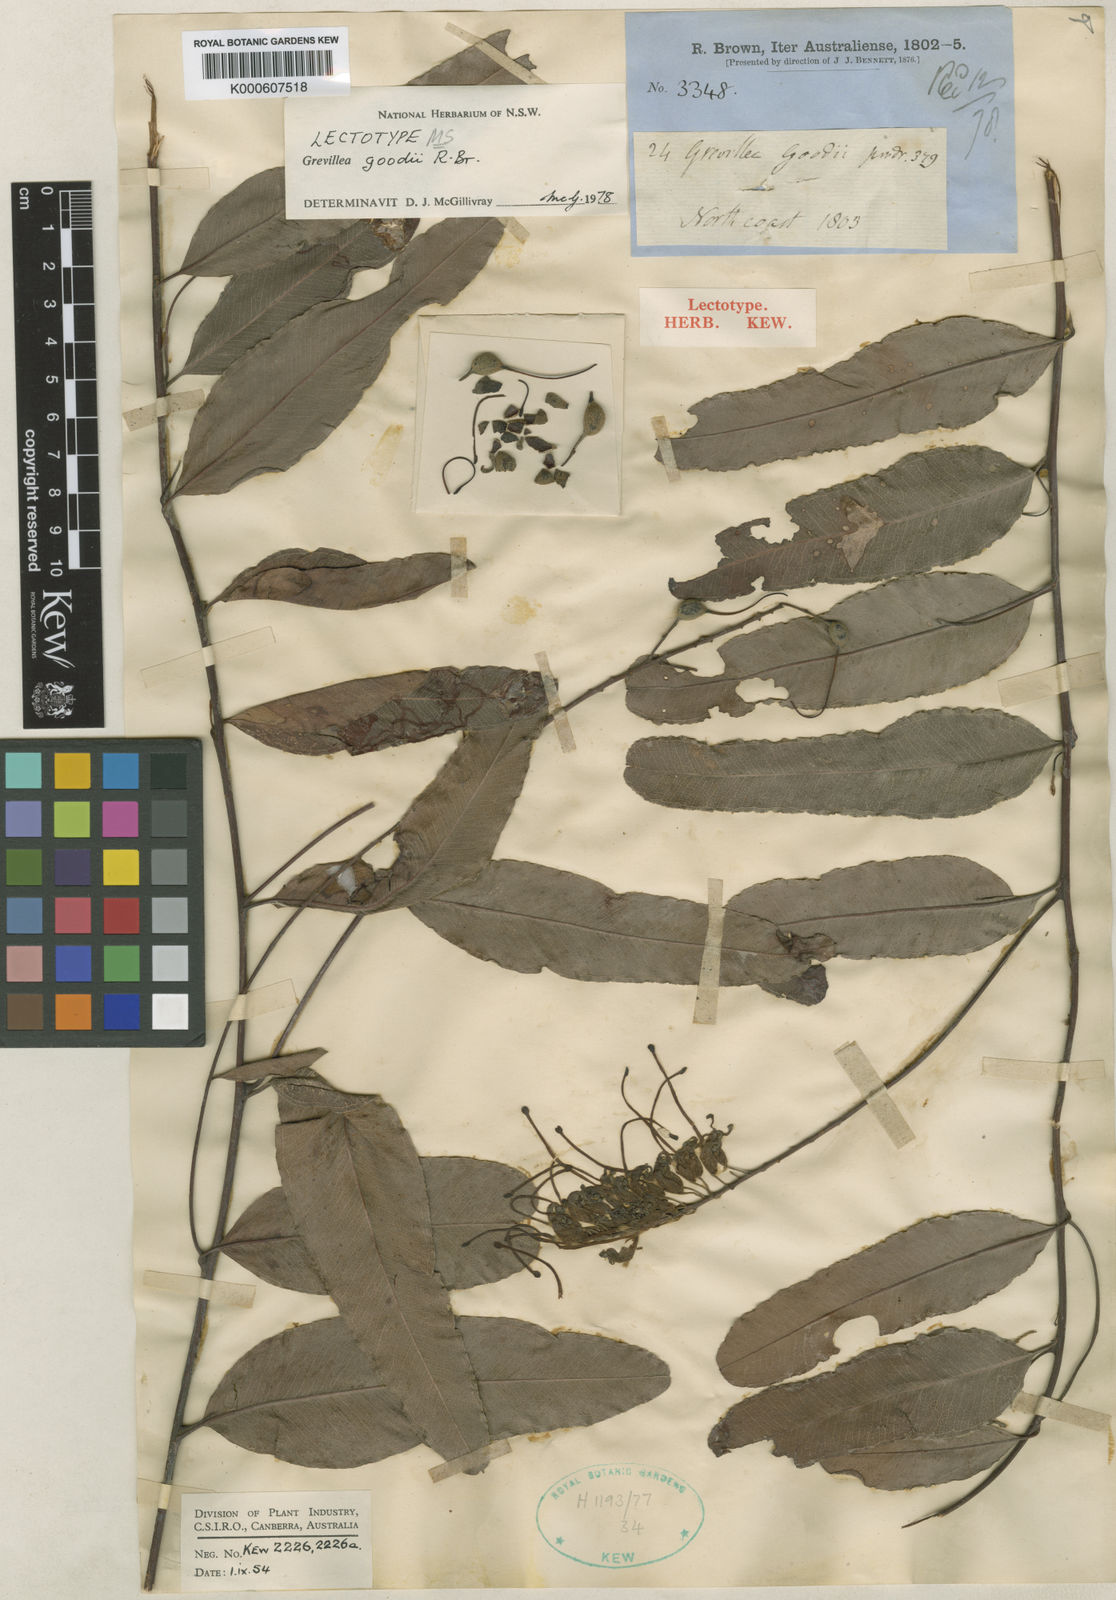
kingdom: Plantae
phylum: Tracheophyta
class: Magnoliopsida
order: Proteales
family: Proteaceae
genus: Grevillea
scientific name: Grevillea goodii
